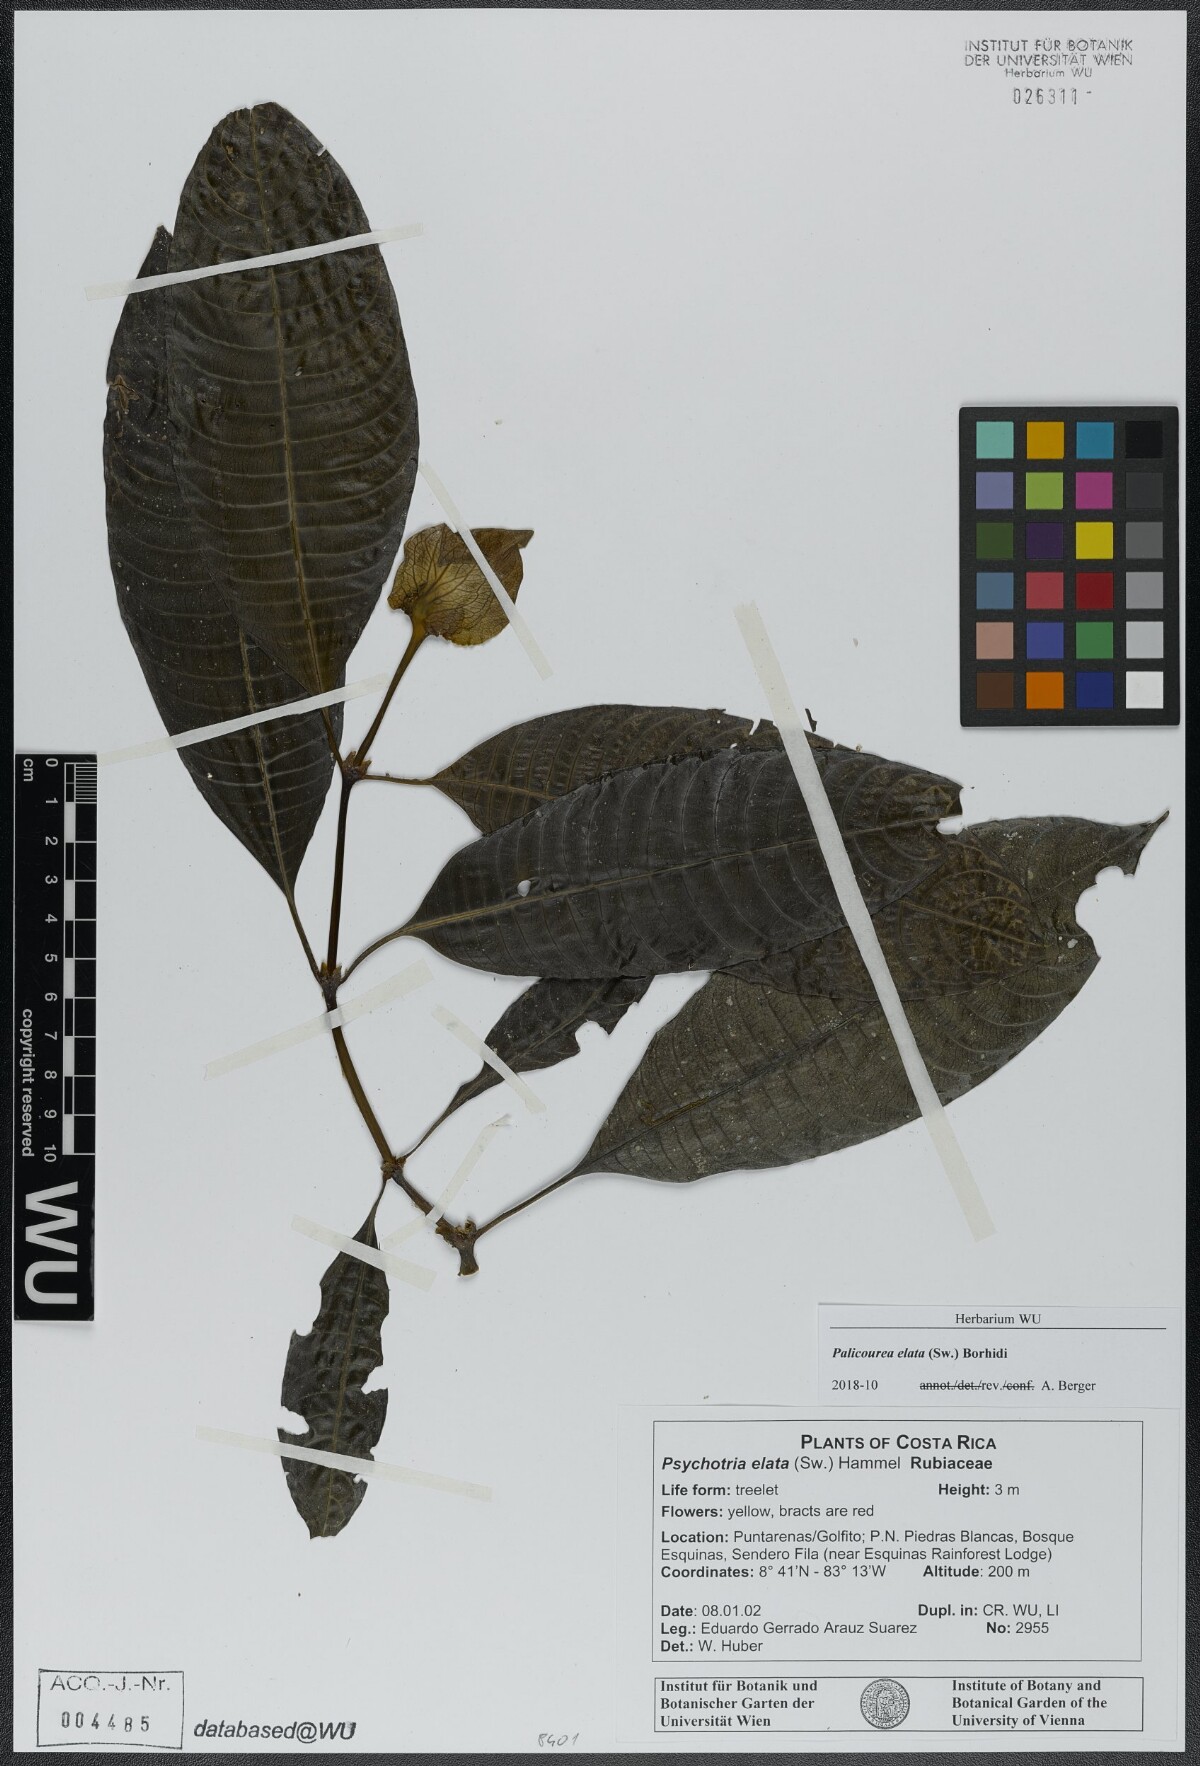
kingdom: Plantae
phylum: Tracheophyta
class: Magnoliopsida
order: Gentianales
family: Rubiaceae
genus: Palicourea
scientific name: Palicourea elata
